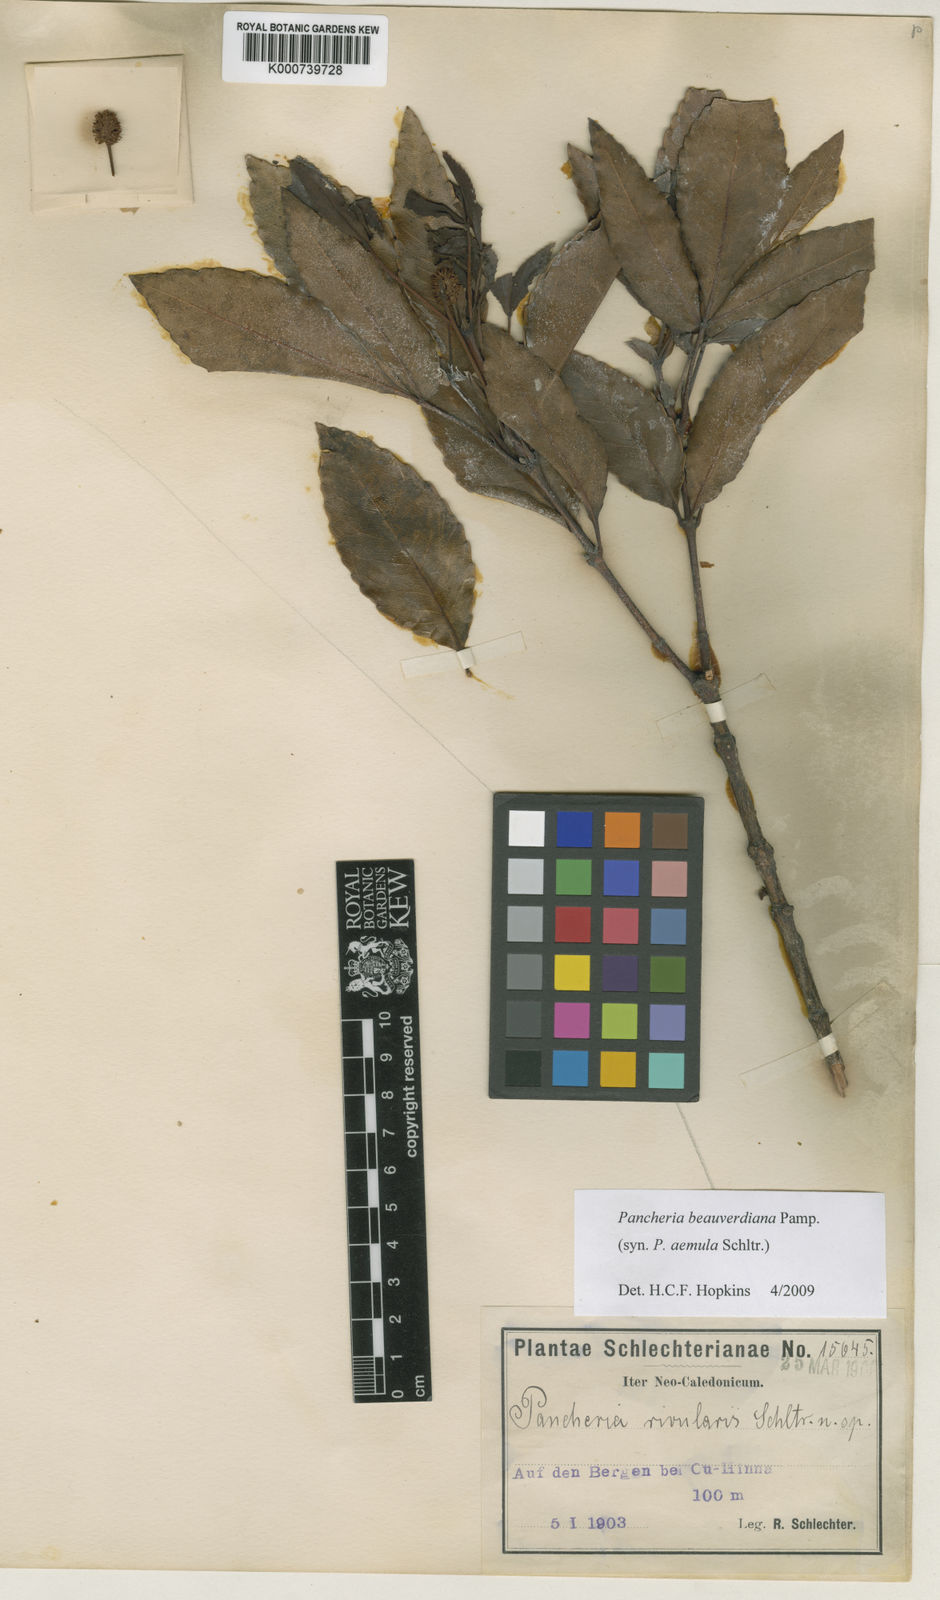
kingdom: Plantae
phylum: Tracheophyta
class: Magnoliopsida
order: Oxalidales
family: Cunoniaceae
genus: Pancheria
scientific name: Pancheria beauverdiana
